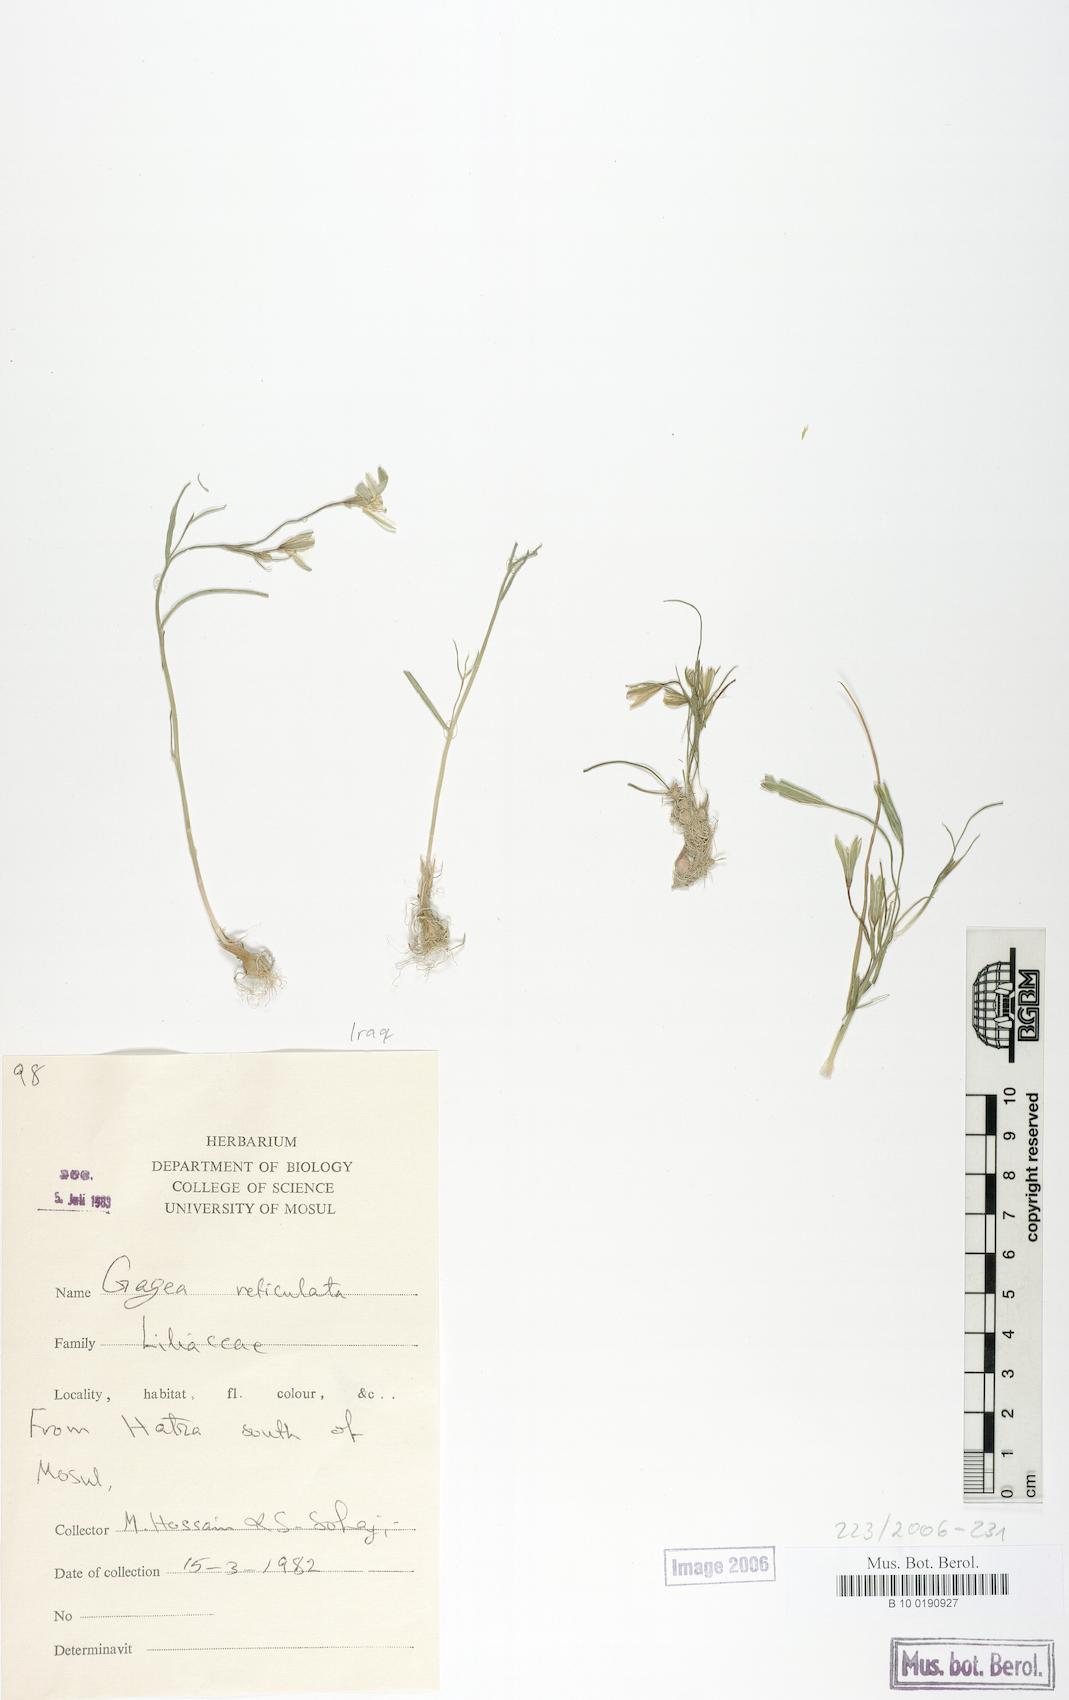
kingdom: Plantae
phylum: Tracheophyta
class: Liliopsida
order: Liliales
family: Liliaceae
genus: Gagea
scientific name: Gagea reticulata
